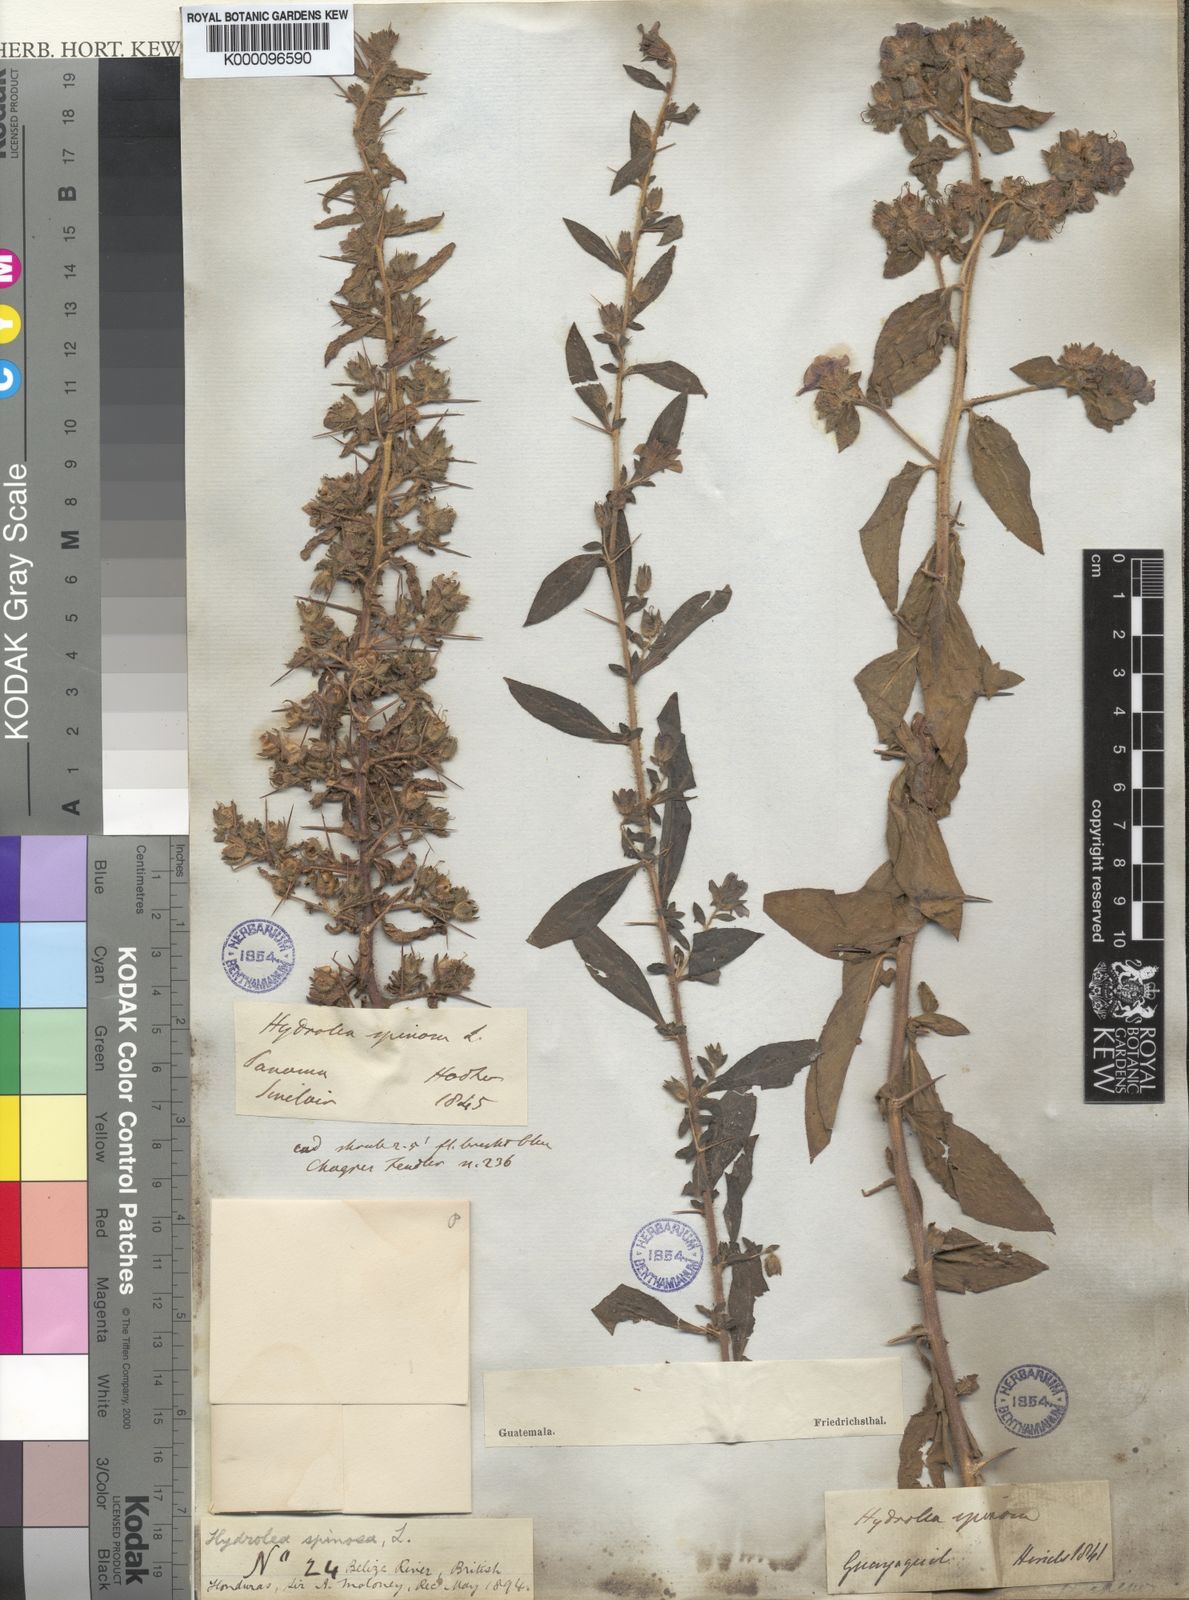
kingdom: Plantae
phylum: Tracheophyta
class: Magnoliopsida
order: Solanales
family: Hydroleaceae
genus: Hydrolea
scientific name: Hydrolea spinosa
